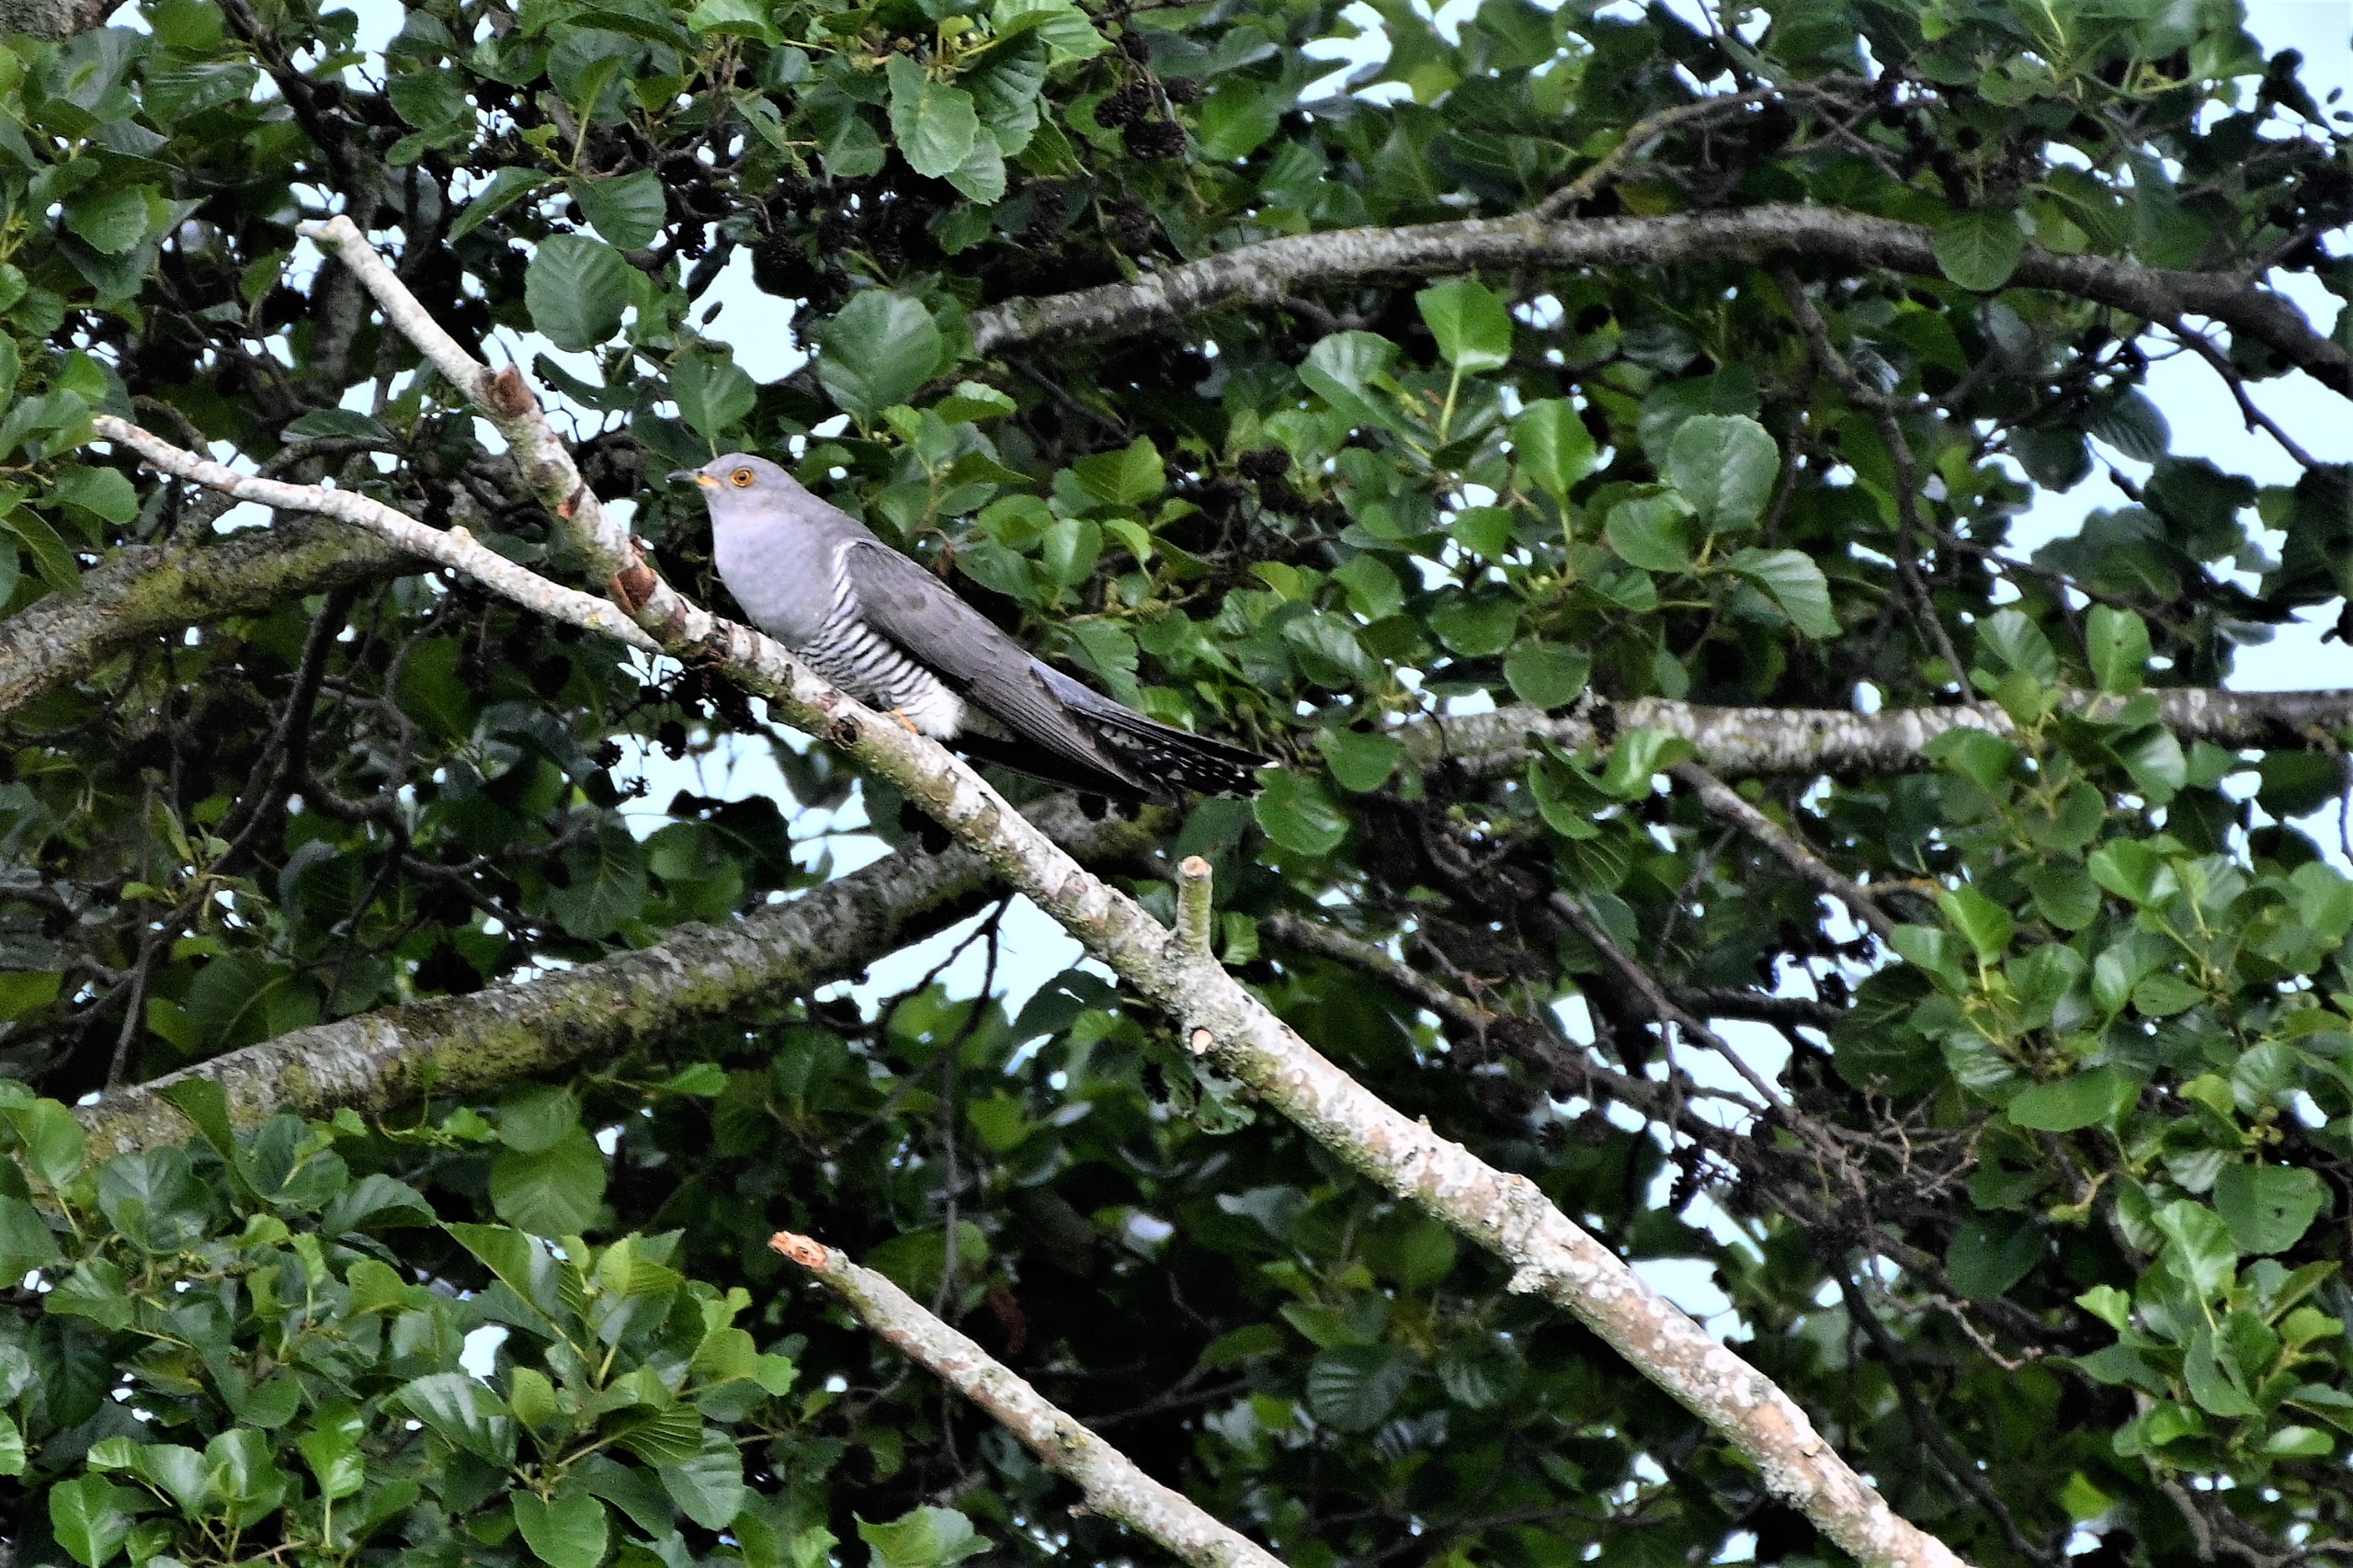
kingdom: Animalia
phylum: Chordata
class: Aves
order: Cuculiformes
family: Cuculidae
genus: Cuculus
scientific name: Cuculus canorus
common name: Gøg
